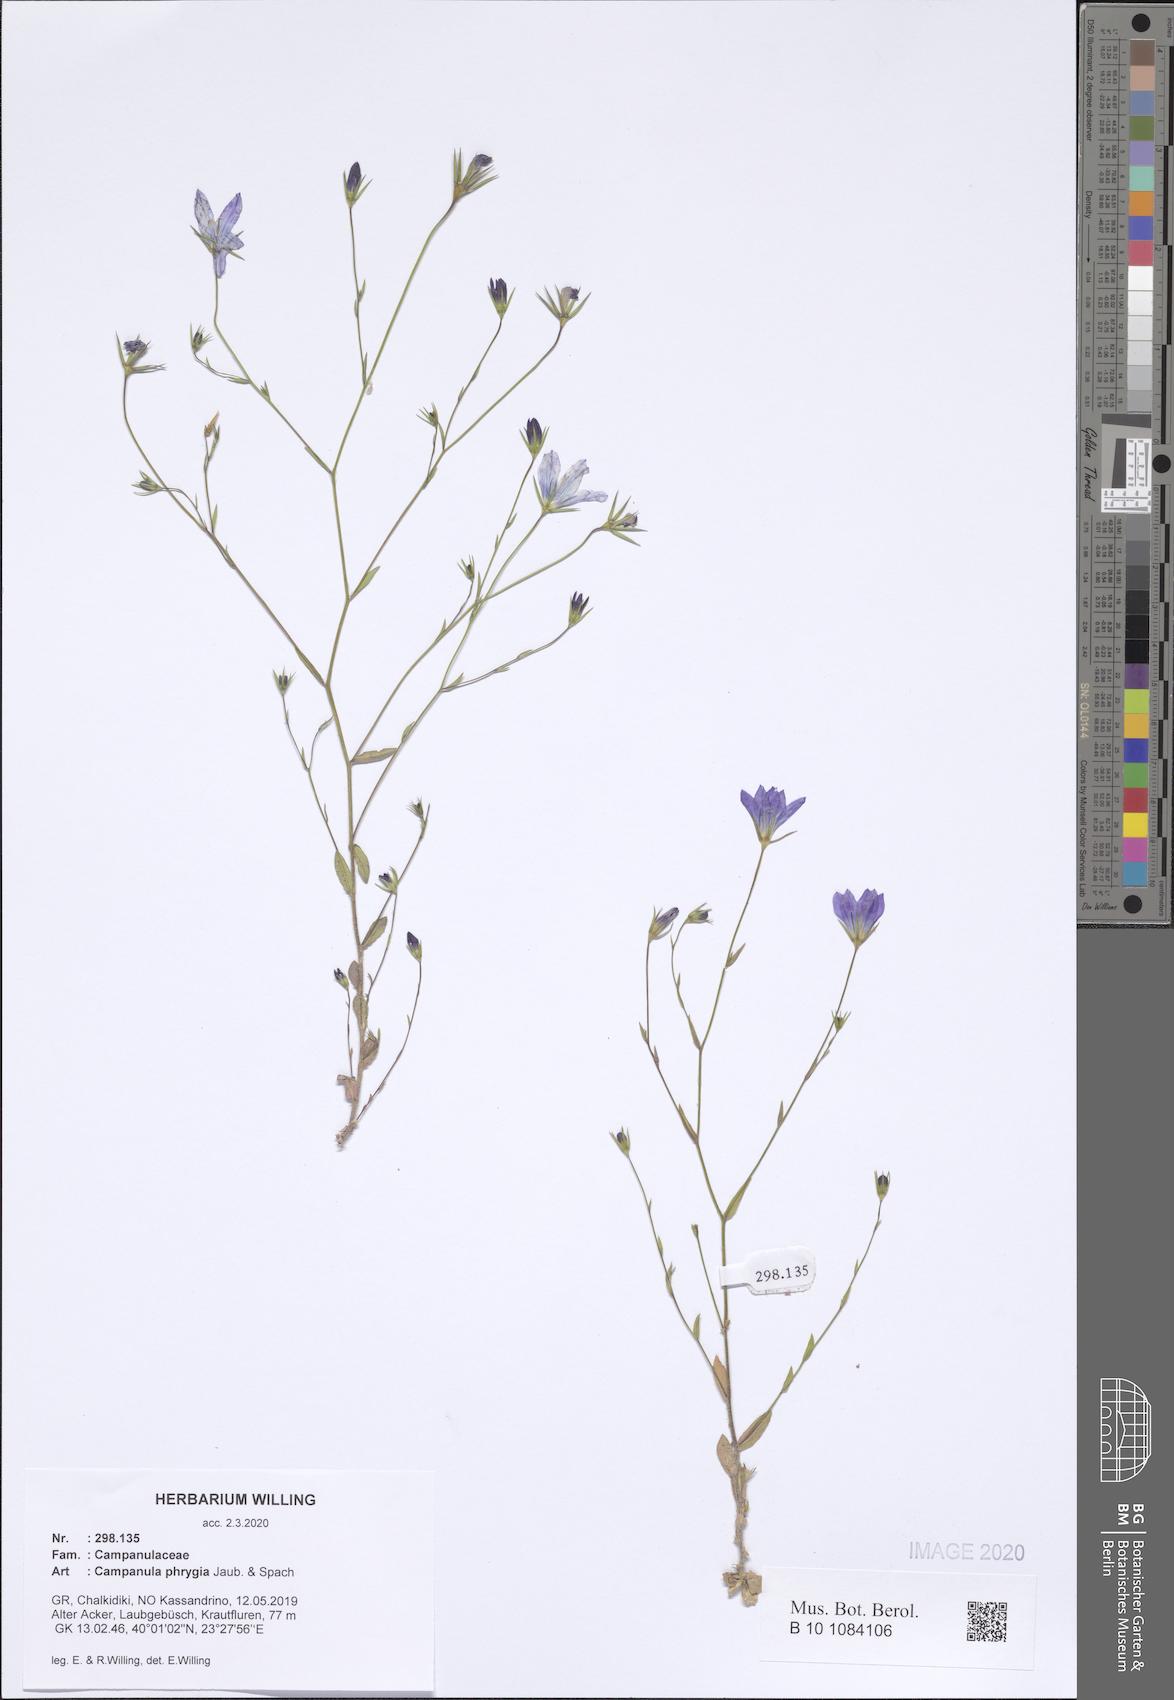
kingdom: Plantae
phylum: Tracheophyta
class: Magnoliopsida
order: Asterales
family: Campanulaceae
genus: Campanula
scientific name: Campanula phrygia
